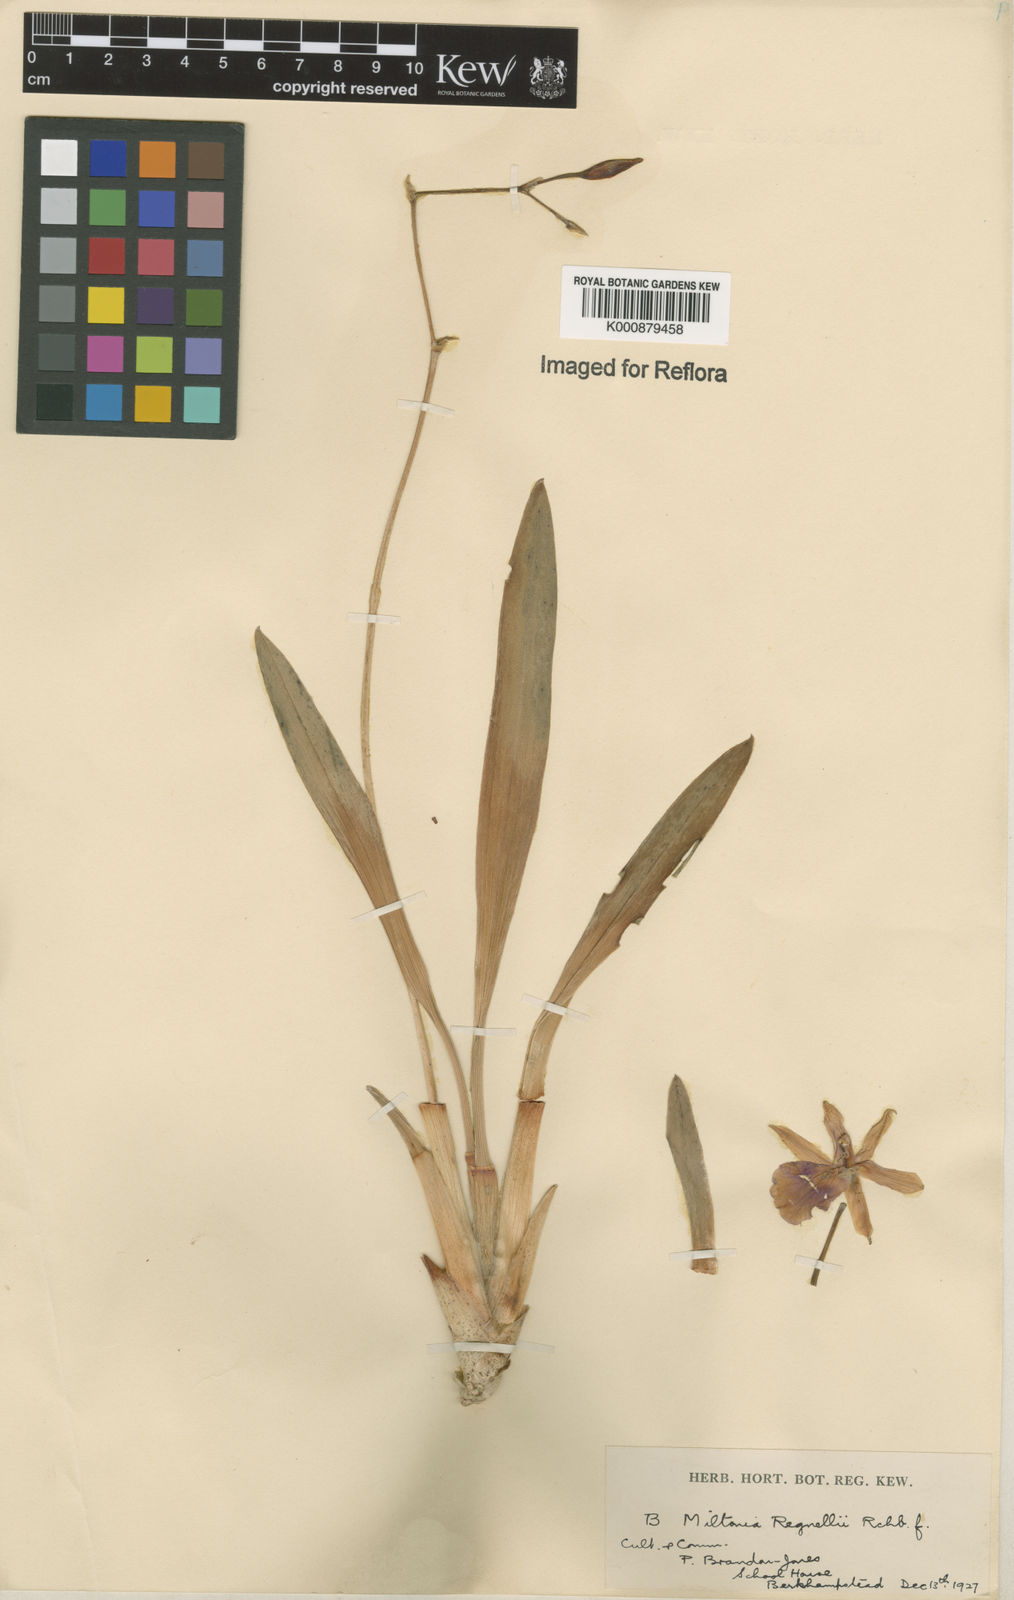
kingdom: Plantae
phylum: Tracheophyta
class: Liliopsida
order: Asparagales
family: Orchidaceae
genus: Miltonia
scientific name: Miltonia regnellii
